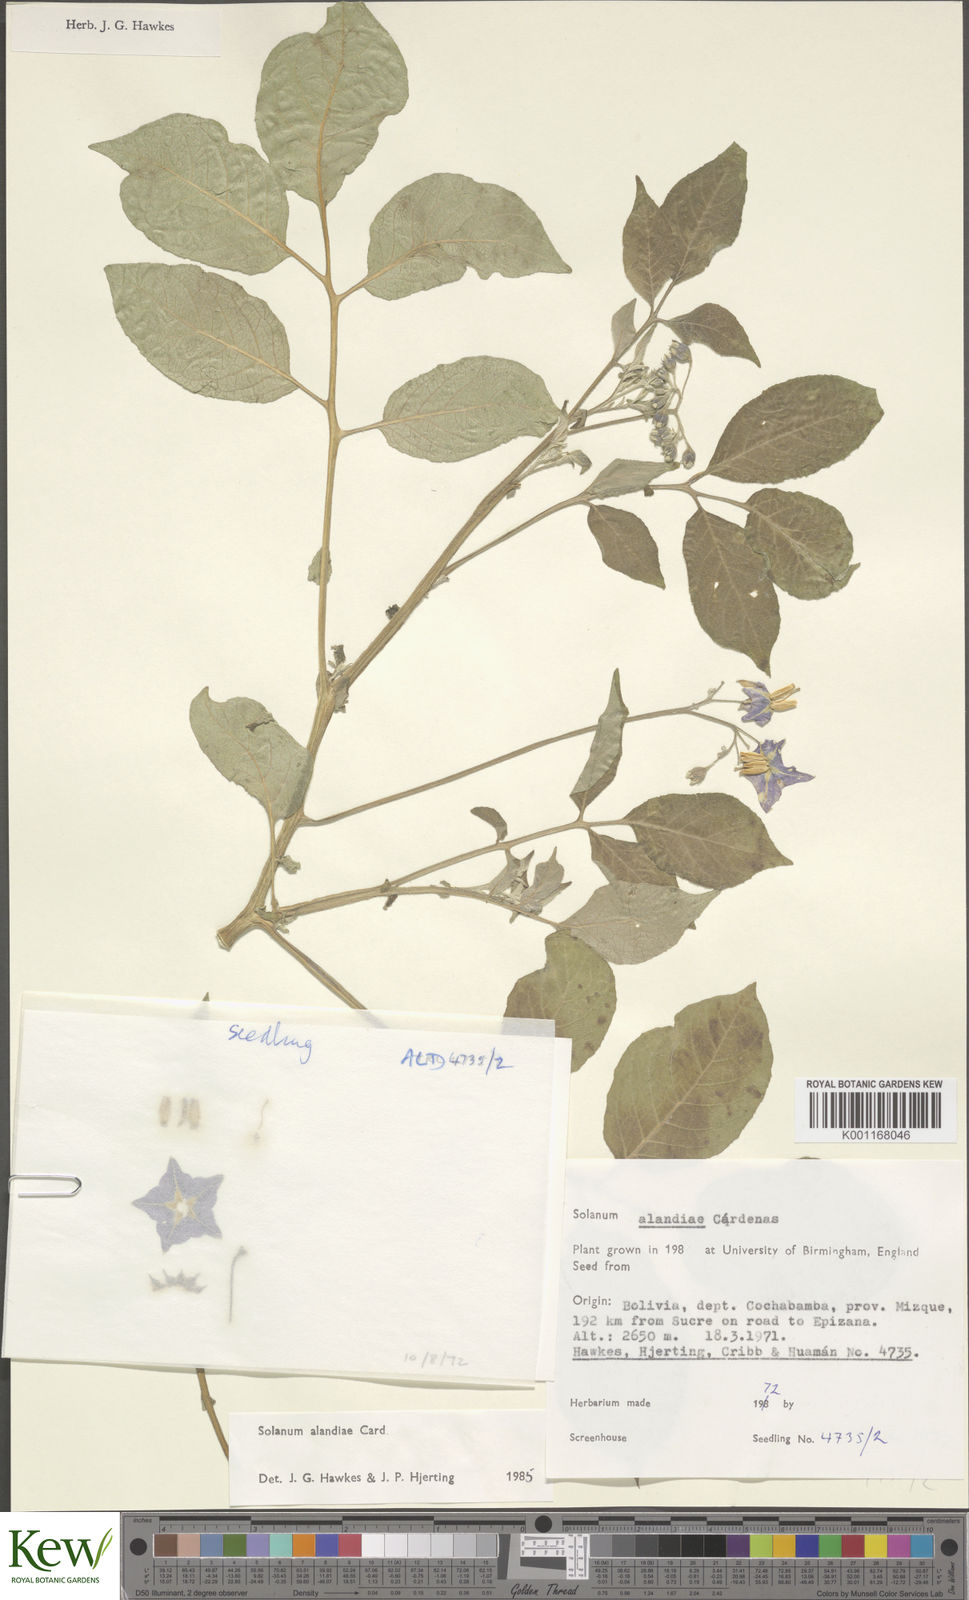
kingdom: Plantae
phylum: Tracheophyta
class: Magnoliopsida
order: Solanales
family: Solanaceae
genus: Solanum
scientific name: Solanum
